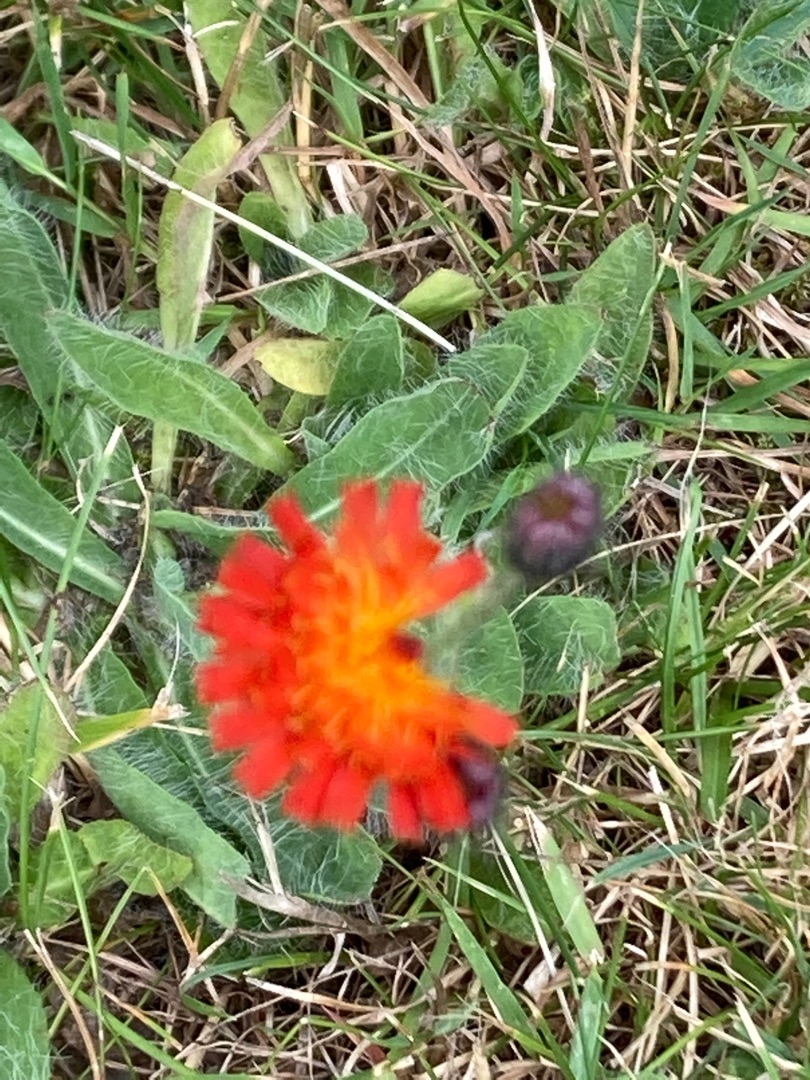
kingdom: Plantae
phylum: Tracheophyta
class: Magnoliopsida
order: Asterales
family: Asteraceae
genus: Pilosella
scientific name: Pilosella aurantiaca
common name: Pomerans-høgeurt
